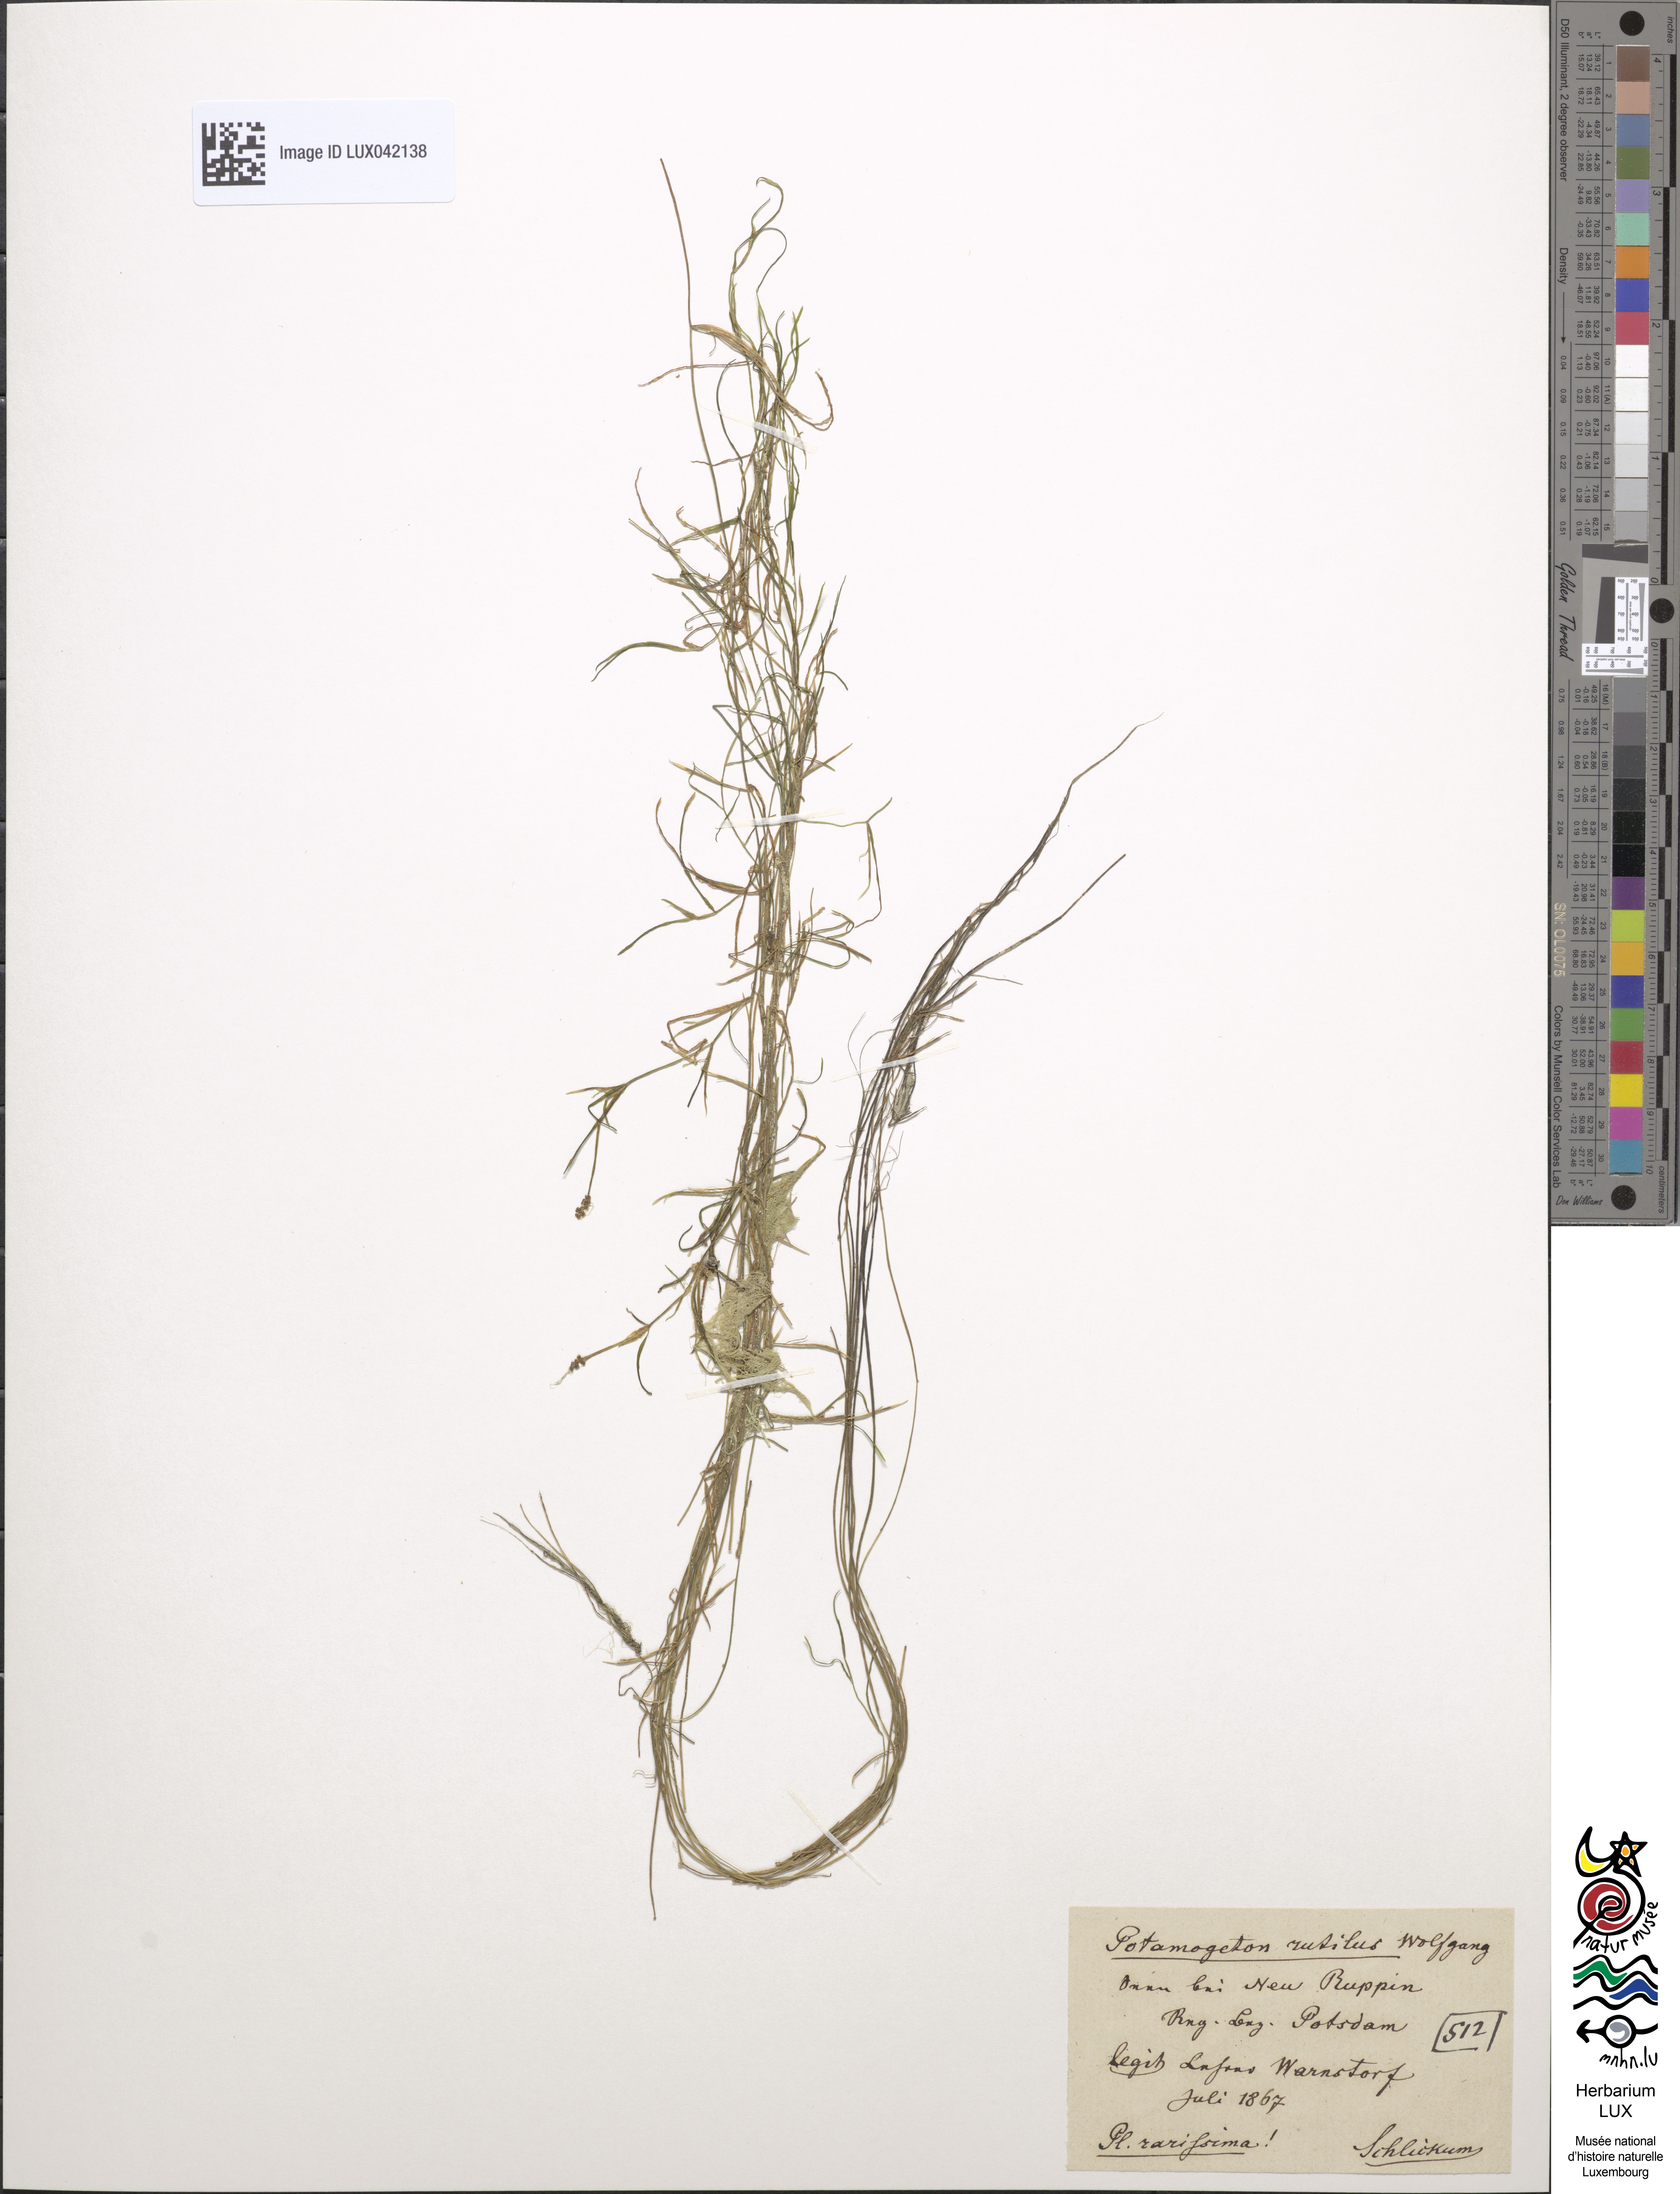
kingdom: Plantae
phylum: Tracheophyta
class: Liliopsida
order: Alismatales
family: Potamogetonaceae
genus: Potamogeton
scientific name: Potamogeton rutilus
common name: Shetland pondweed
